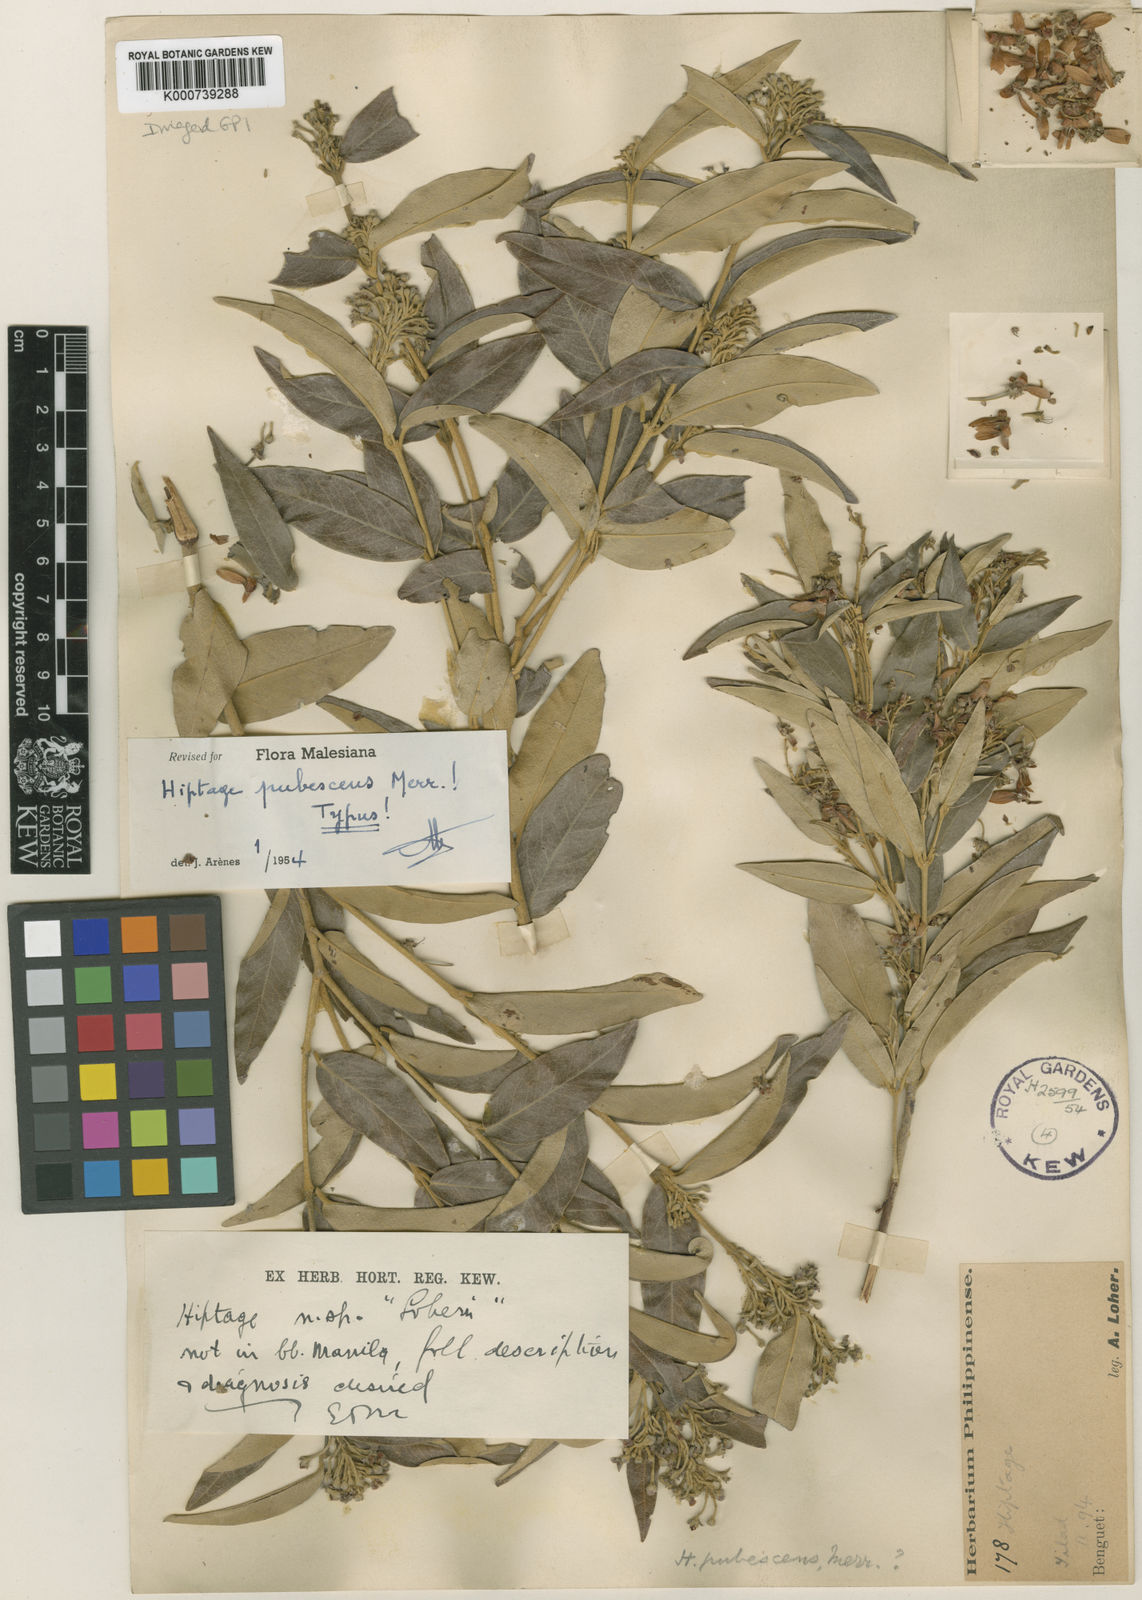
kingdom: Plantae
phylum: Tracheophyta
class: Magnoliopsida
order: Malpighiales
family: Malpighiaceae
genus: Hiptage
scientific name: Hiptage pubescens
